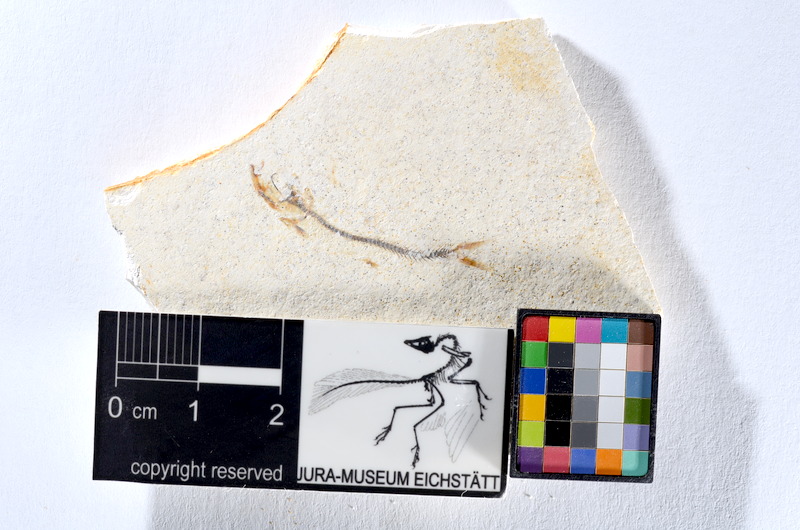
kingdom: Animalia
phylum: Chordata
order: Salmoniformes
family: Orthogonikleithridae
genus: Orthogonikleithrus
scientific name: Orthogonikleithrus hoelli
